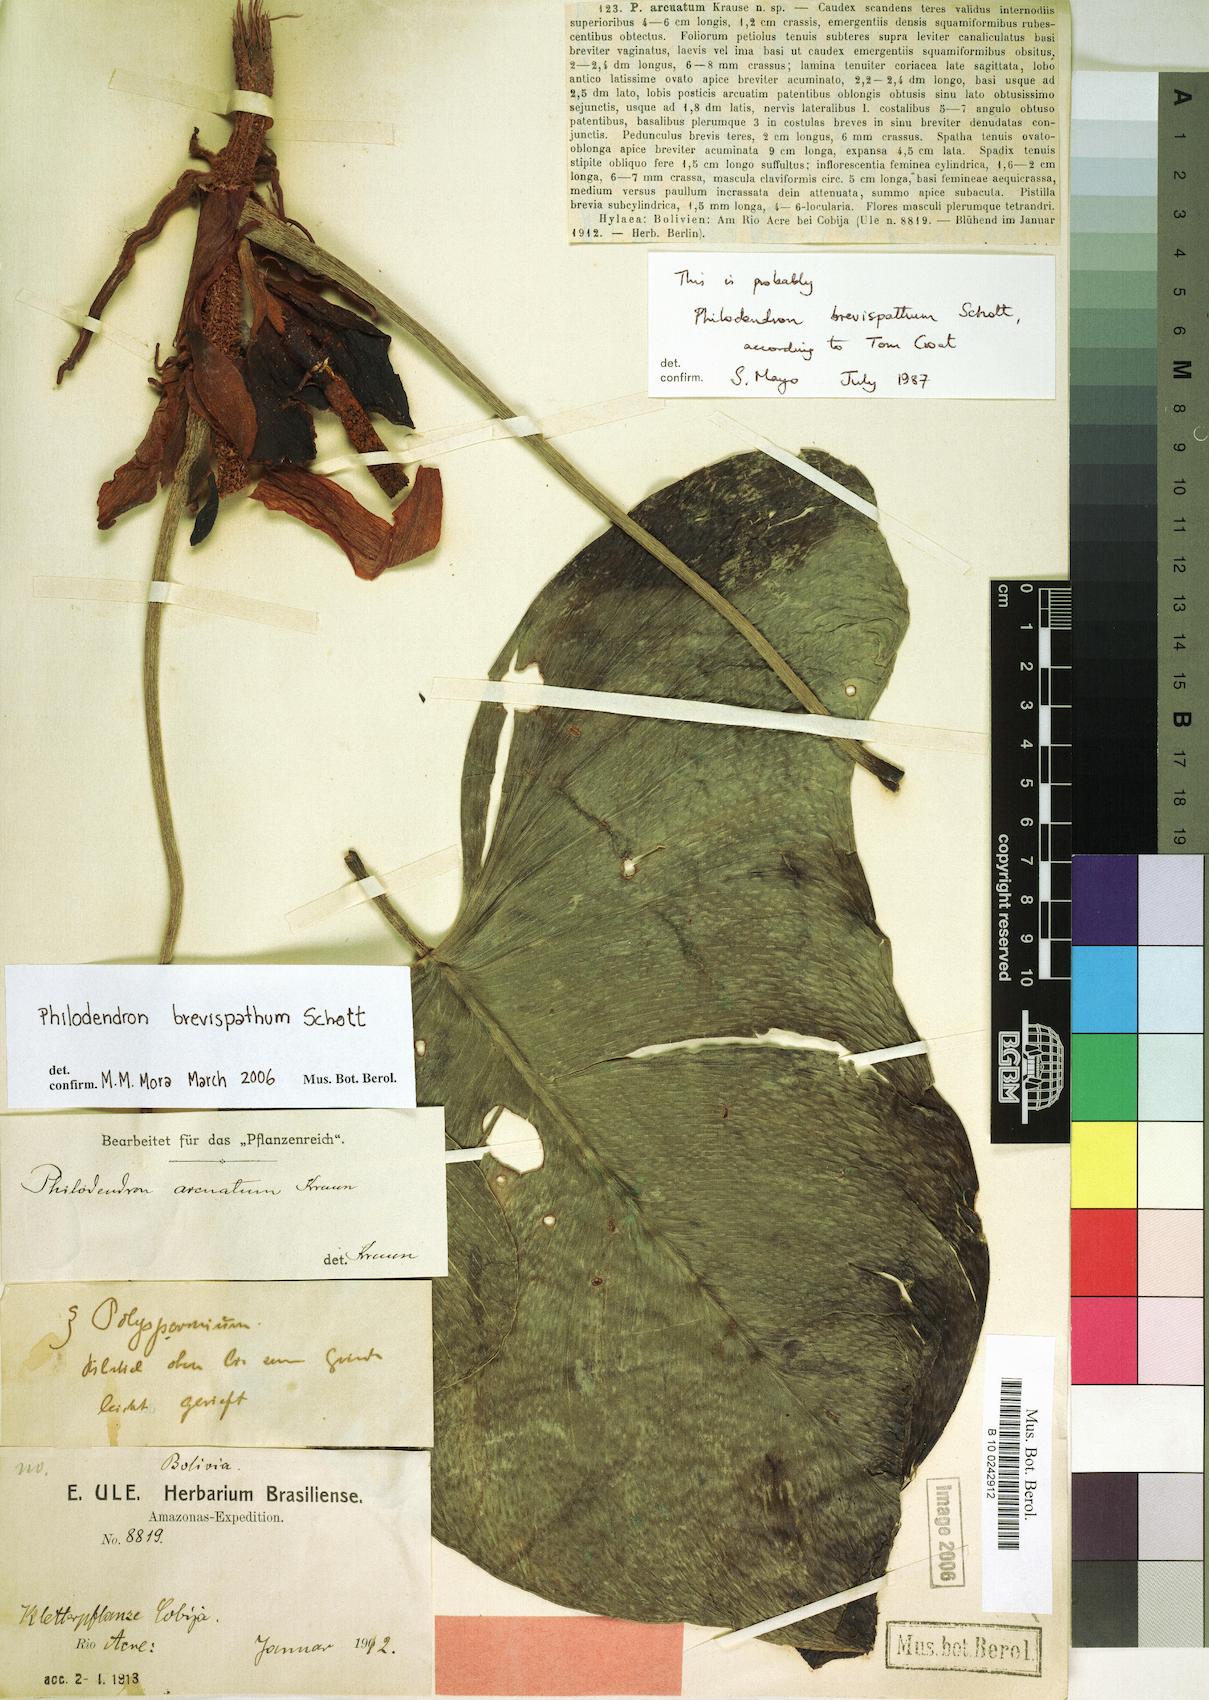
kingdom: Plantae
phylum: Tracheophyta
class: Liliopsida
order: Alismatales
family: Araceae
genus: Philodendron
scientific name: Philodendron brevispathum
